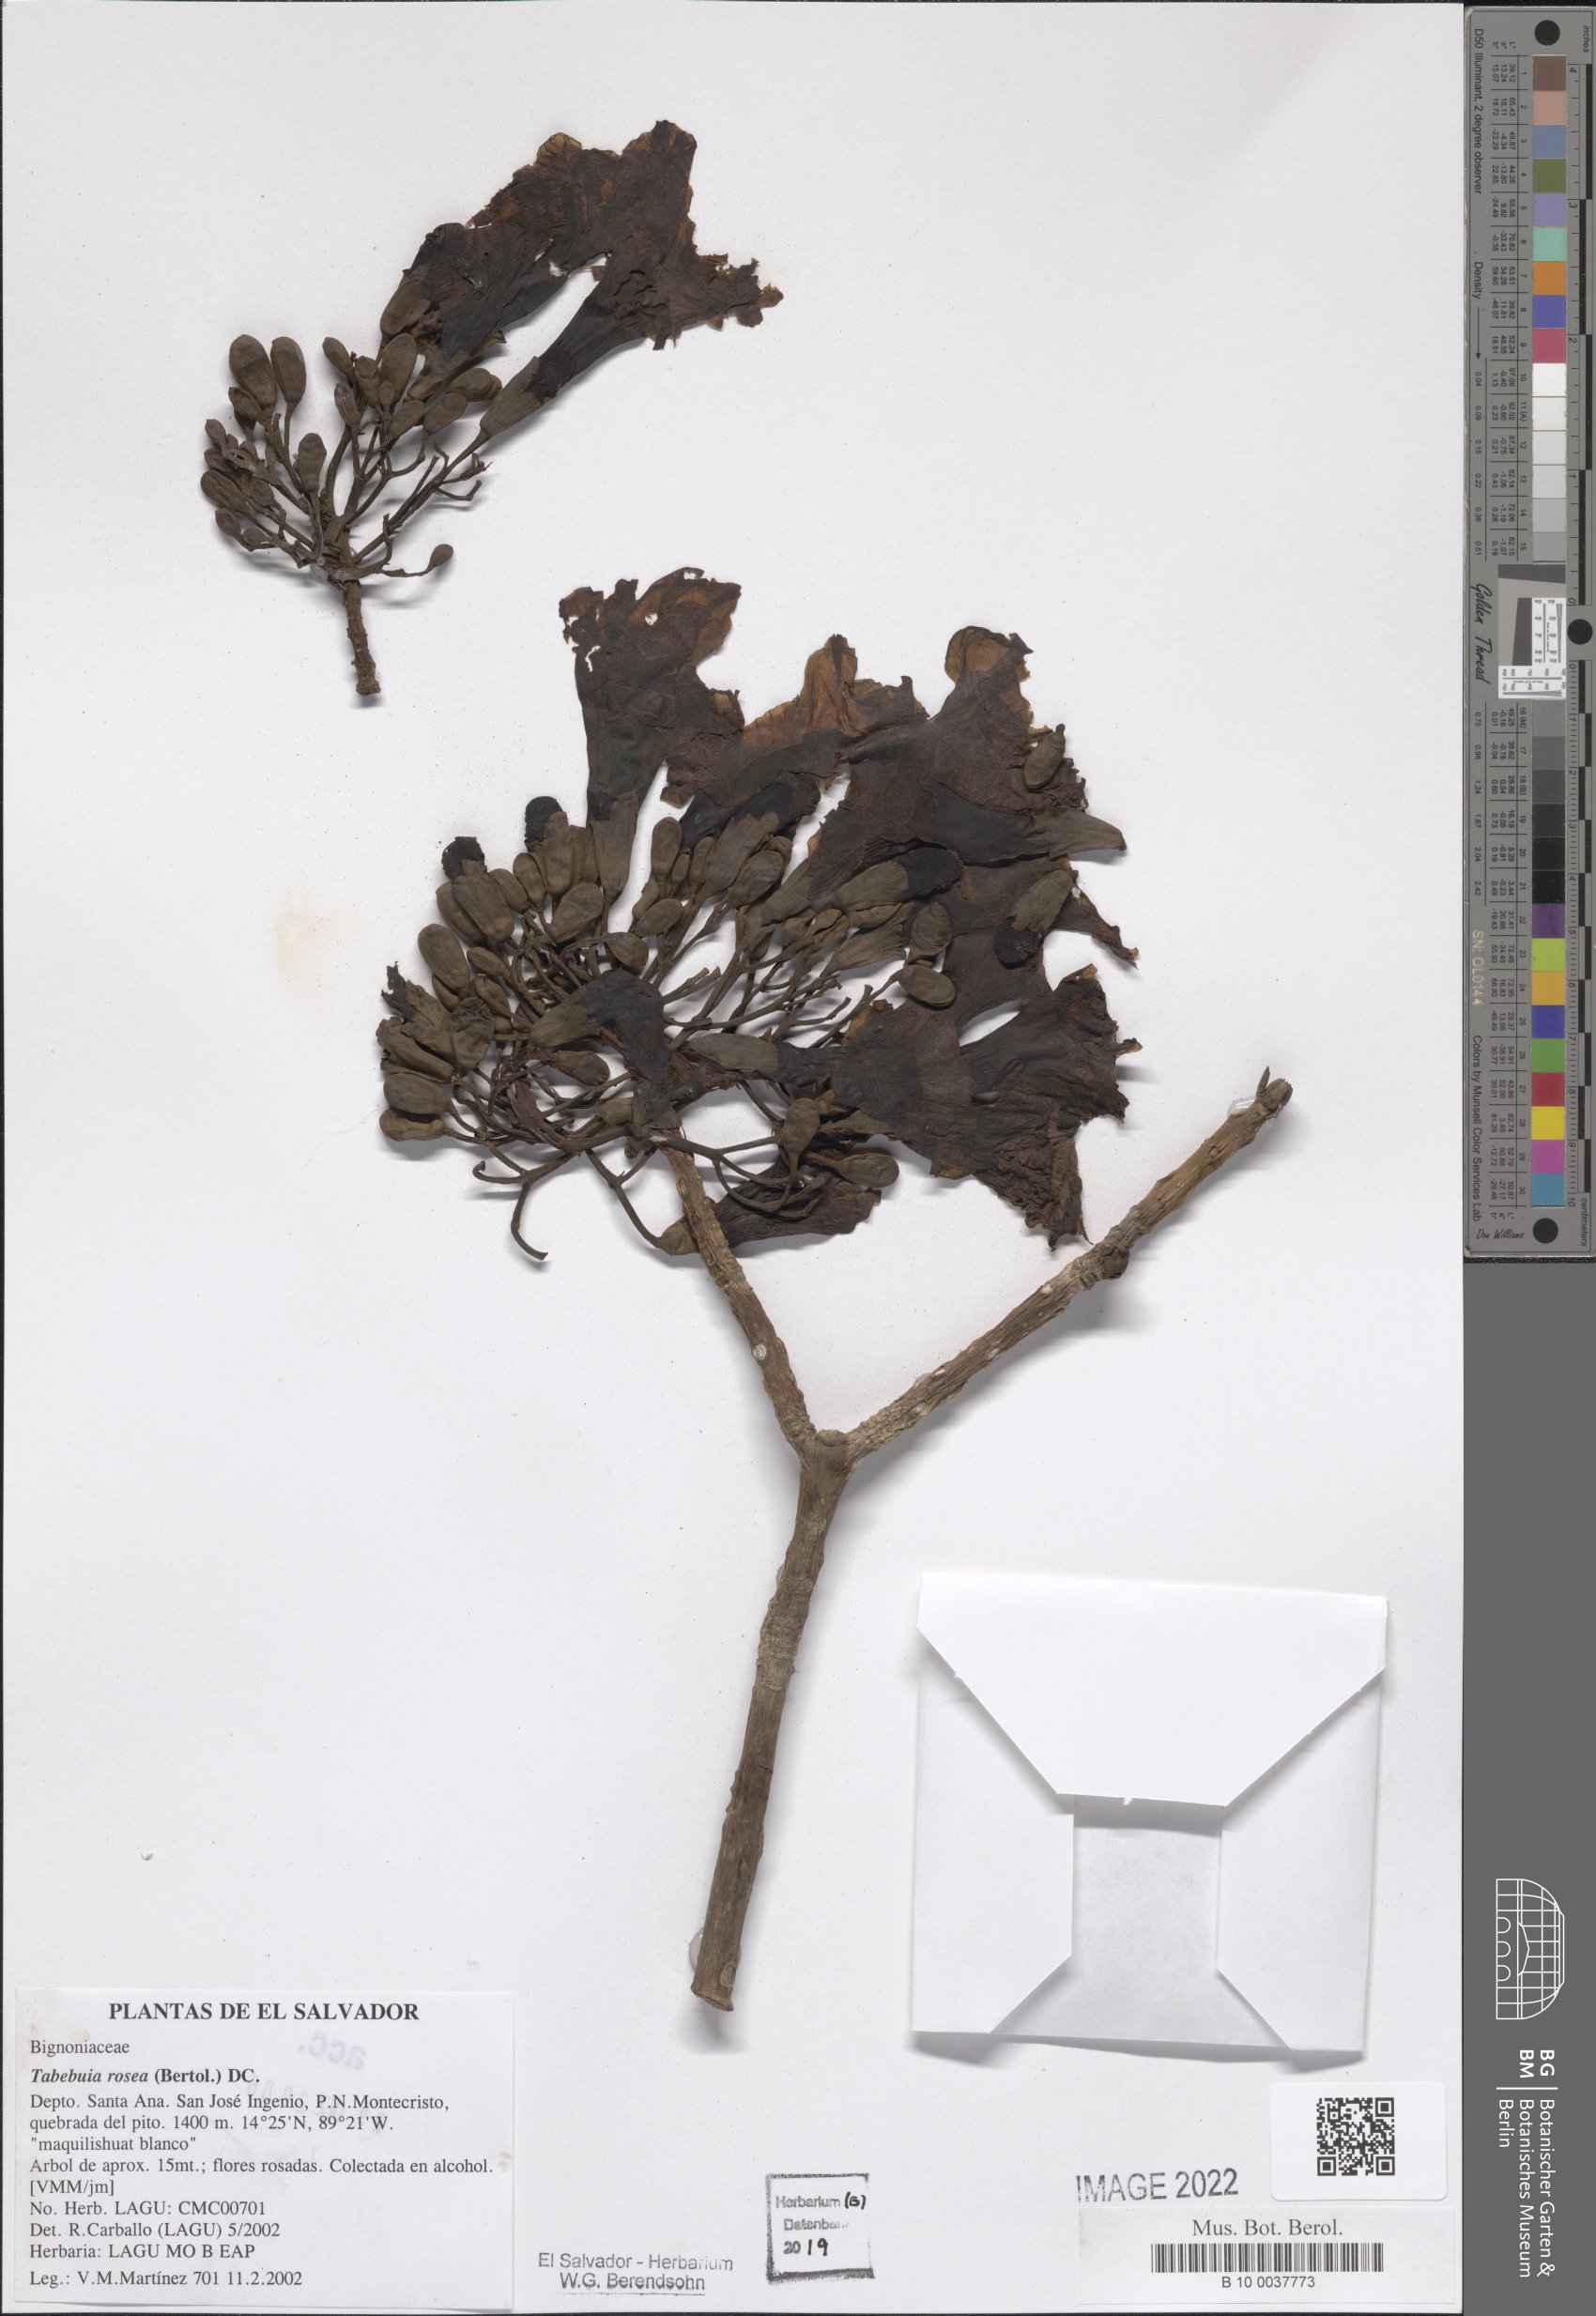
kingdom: Plantae
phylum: Tracheophyta
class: Magnoliopsida
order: Lamiales
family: Bignoniaceae
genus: Tabebuia
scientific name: Tabebuia rosea
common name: Pink poui
